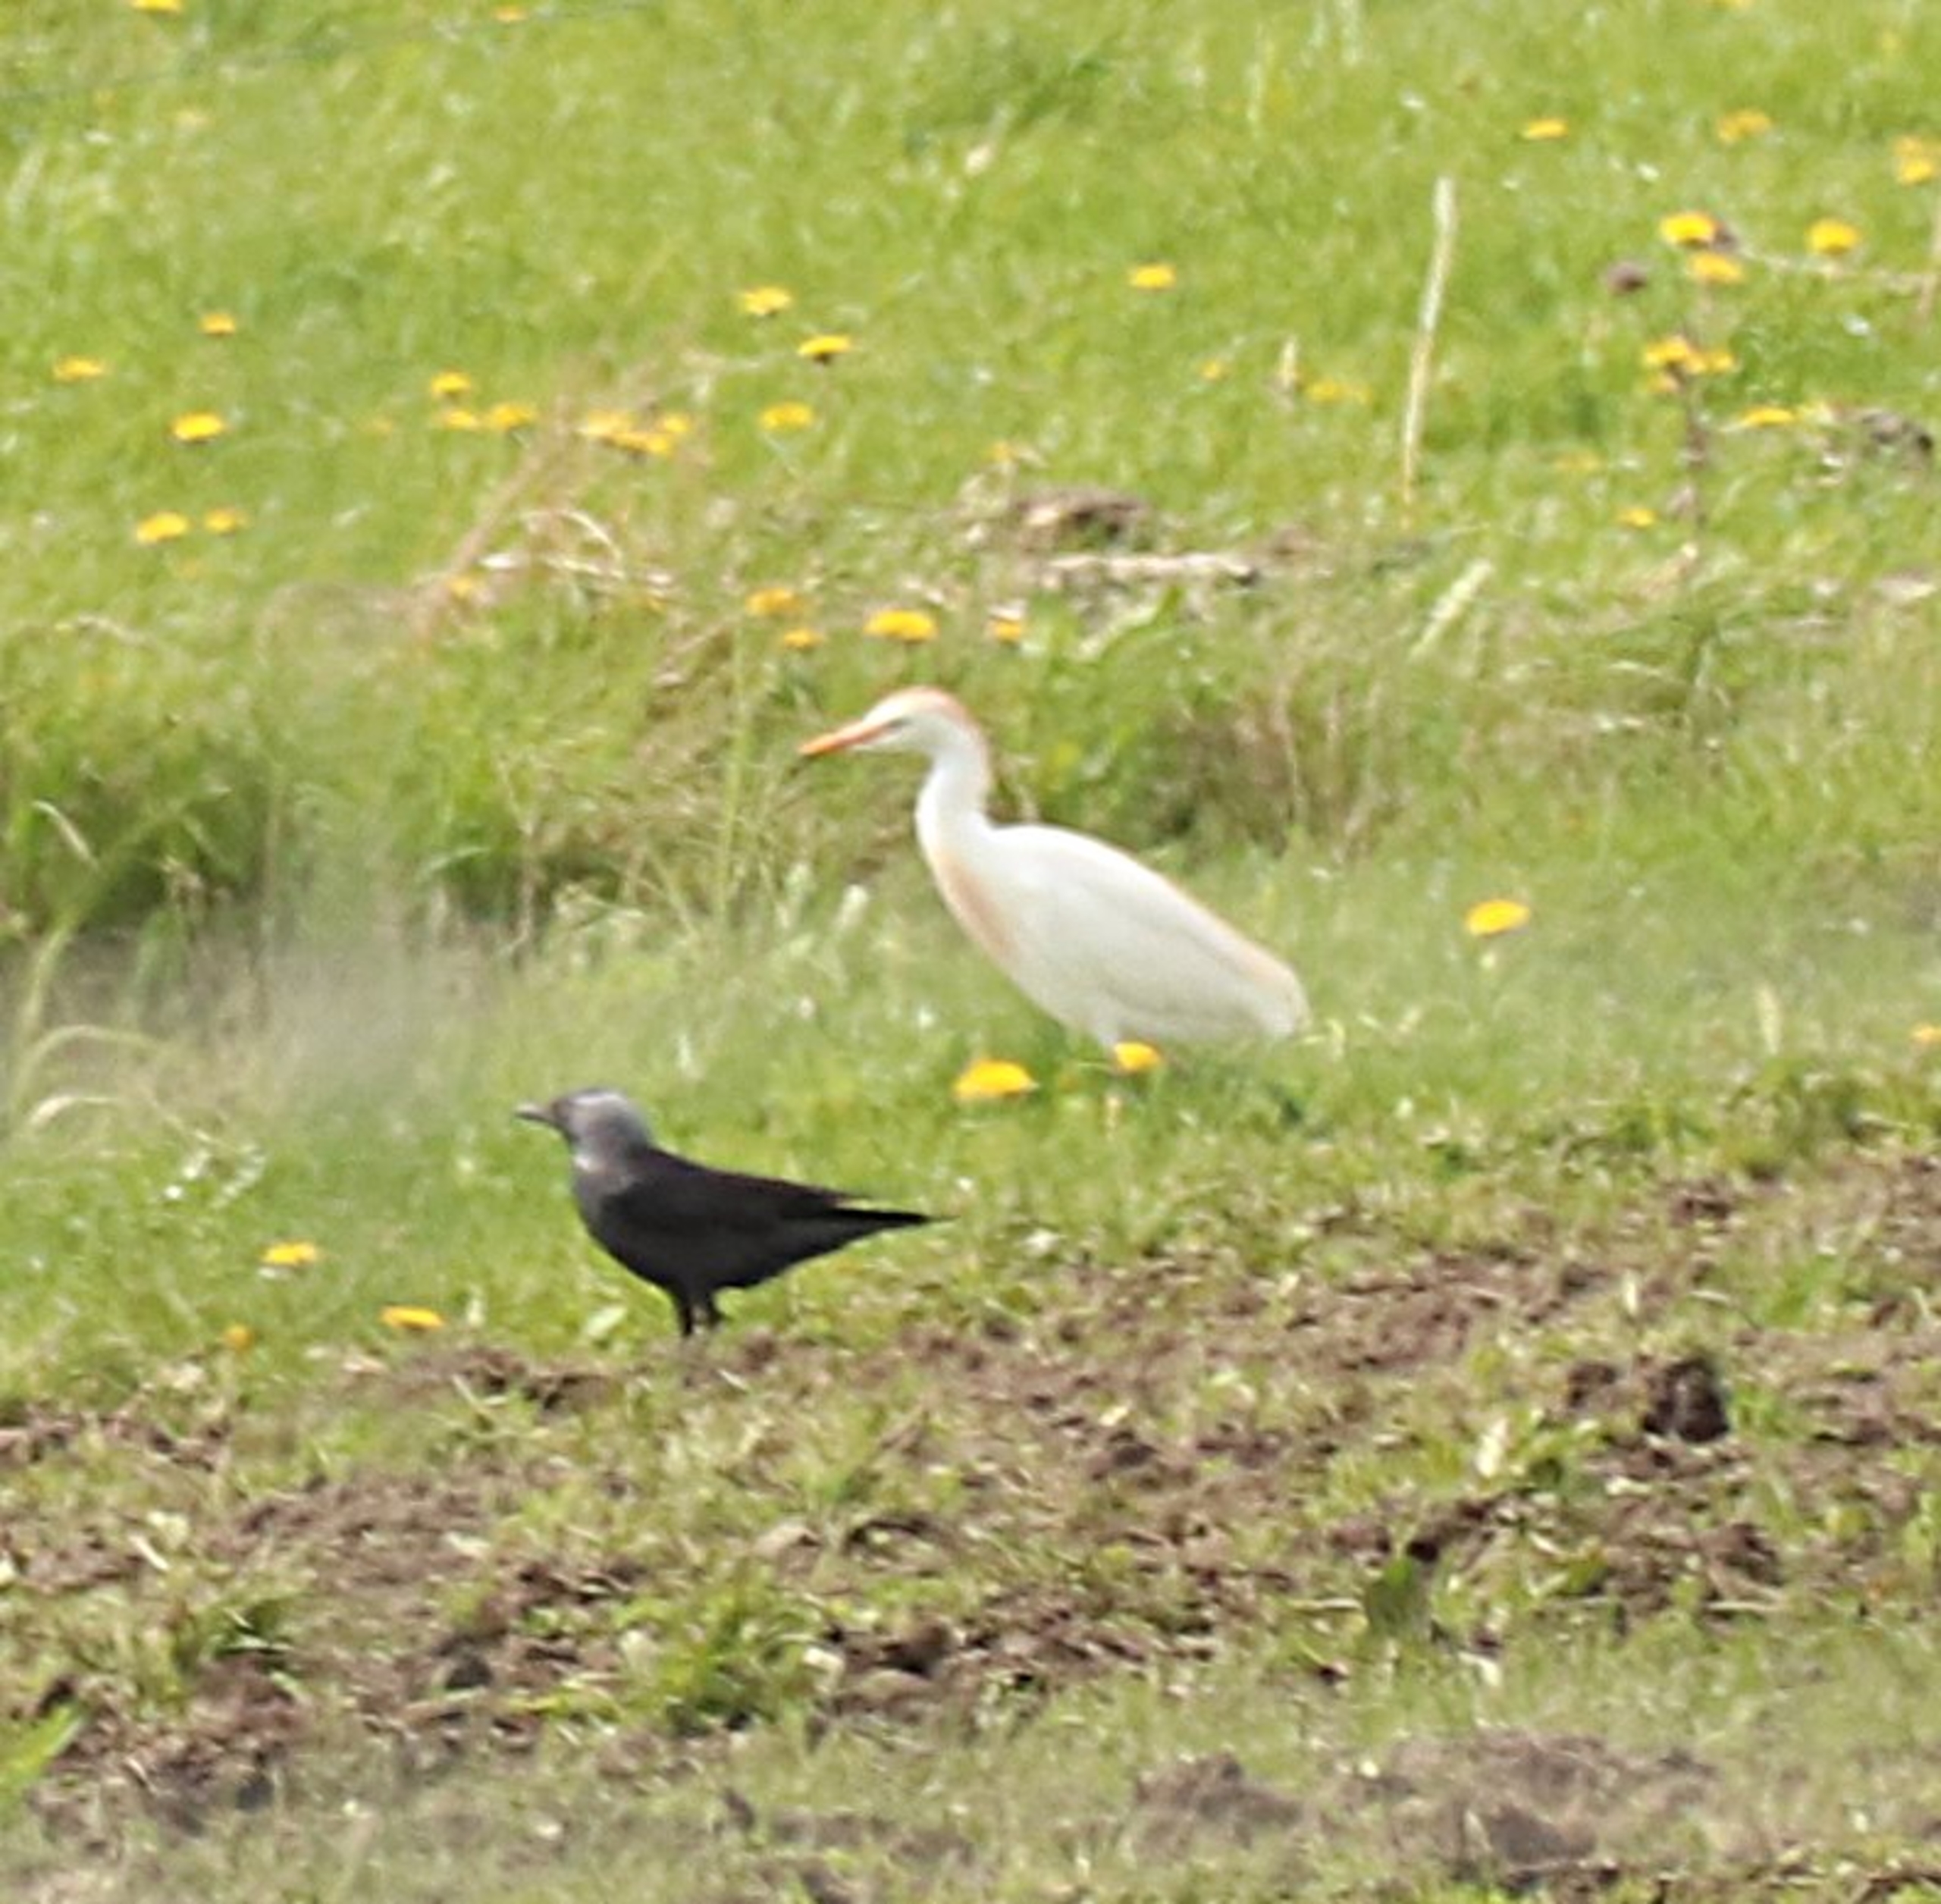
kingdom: Animalia
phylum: Chordata
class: Aves
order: Pelecaniformes
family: Ardeidae
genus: Bubulcus
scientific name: Bubulcus ibis
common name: Kohejre
